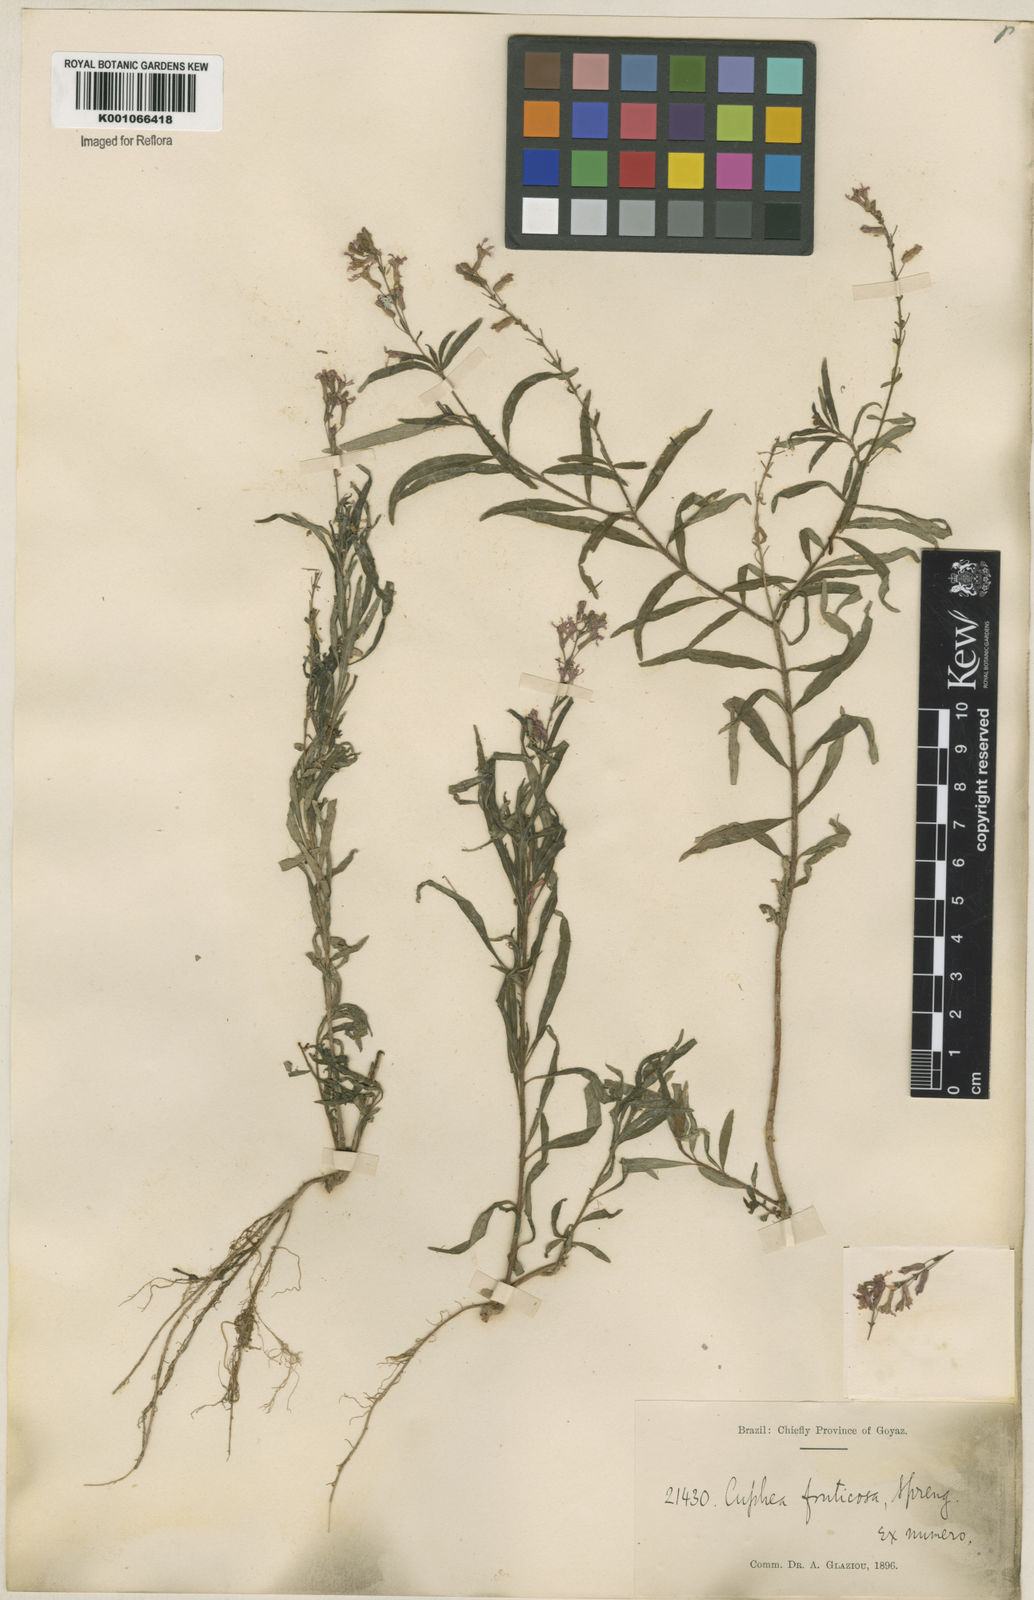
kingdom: Plantae
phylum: Tracheophyta
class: Magnoliopsida
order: Myrtales
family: Lythraceae
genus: Cuphea
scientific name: Cuphea fruticosa
